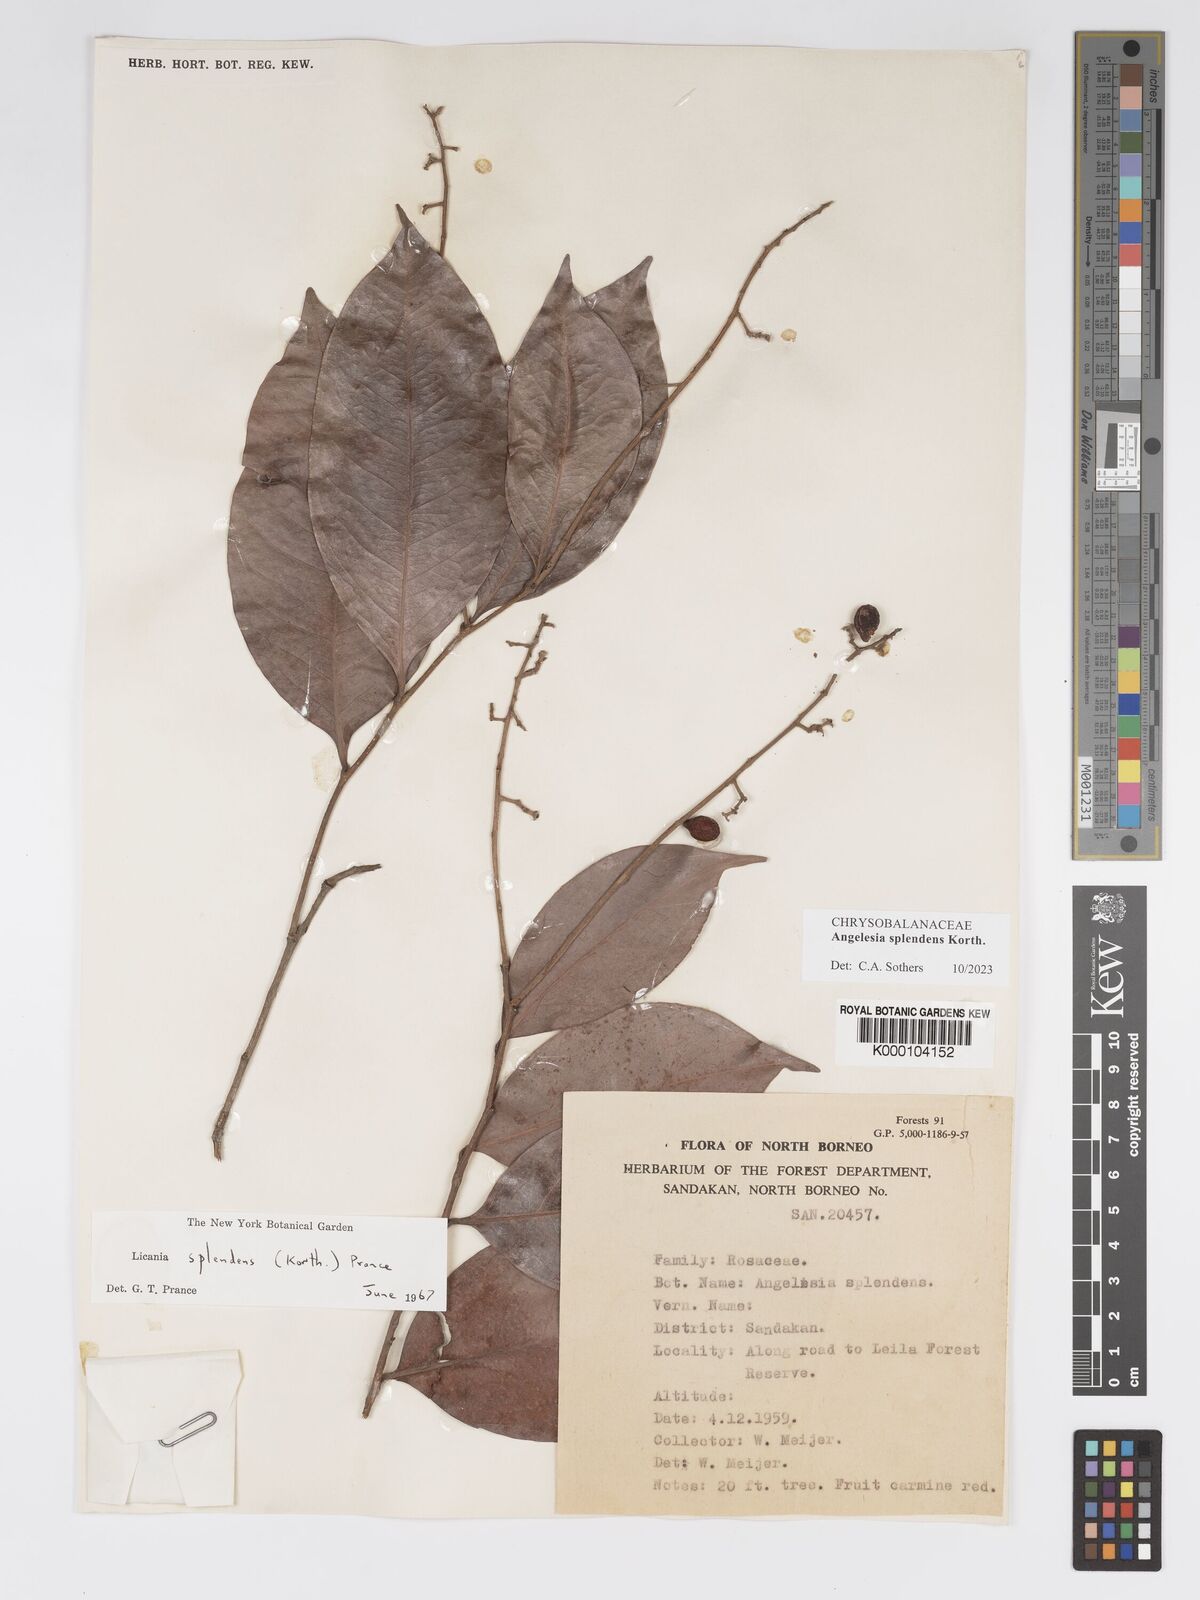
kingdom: Plantae
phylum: Tracheophyta
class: Magnoliopsida
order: Malpighiales
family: Chrysobalanaceae
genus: Angelesia
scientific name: Angelesia splendens
